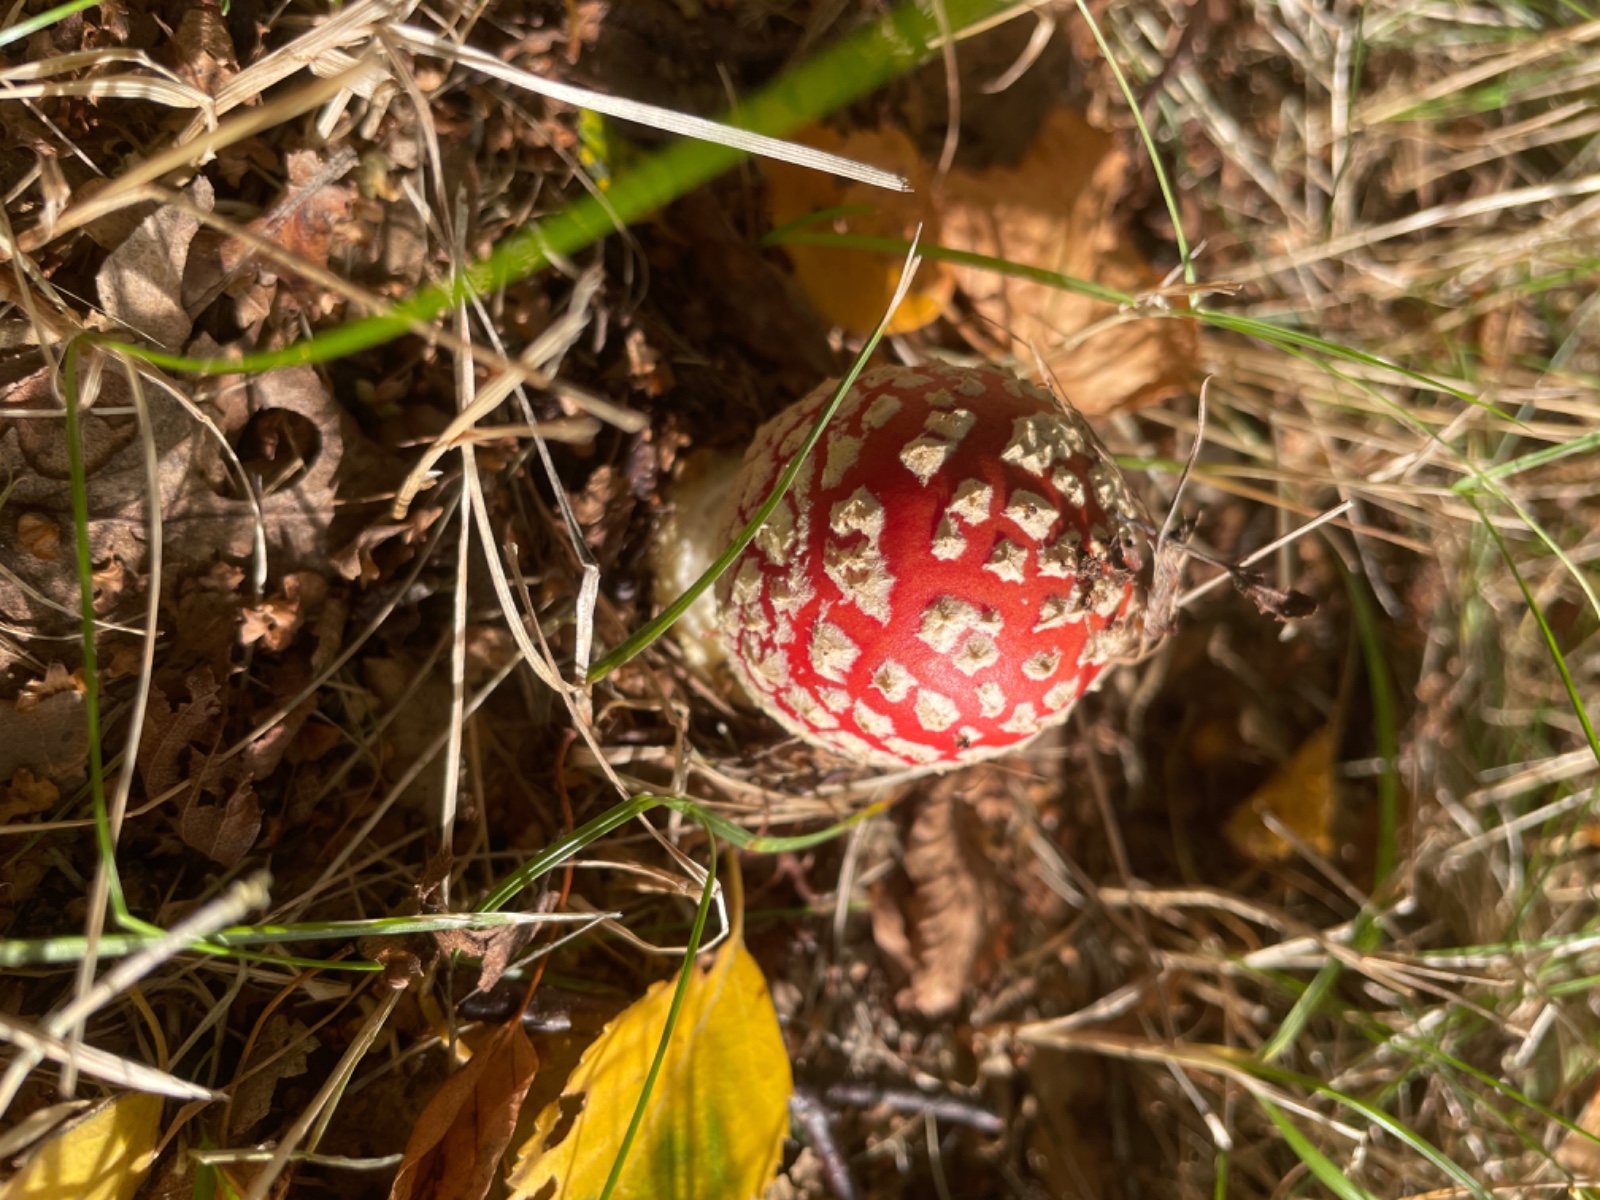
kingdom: Fungi
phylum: Basidiomycota
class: Agaricomycetes
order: Agaricales
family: Amanitaceae
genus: Amanita
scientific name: Amanita muscaria
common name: rød fluesvamp
